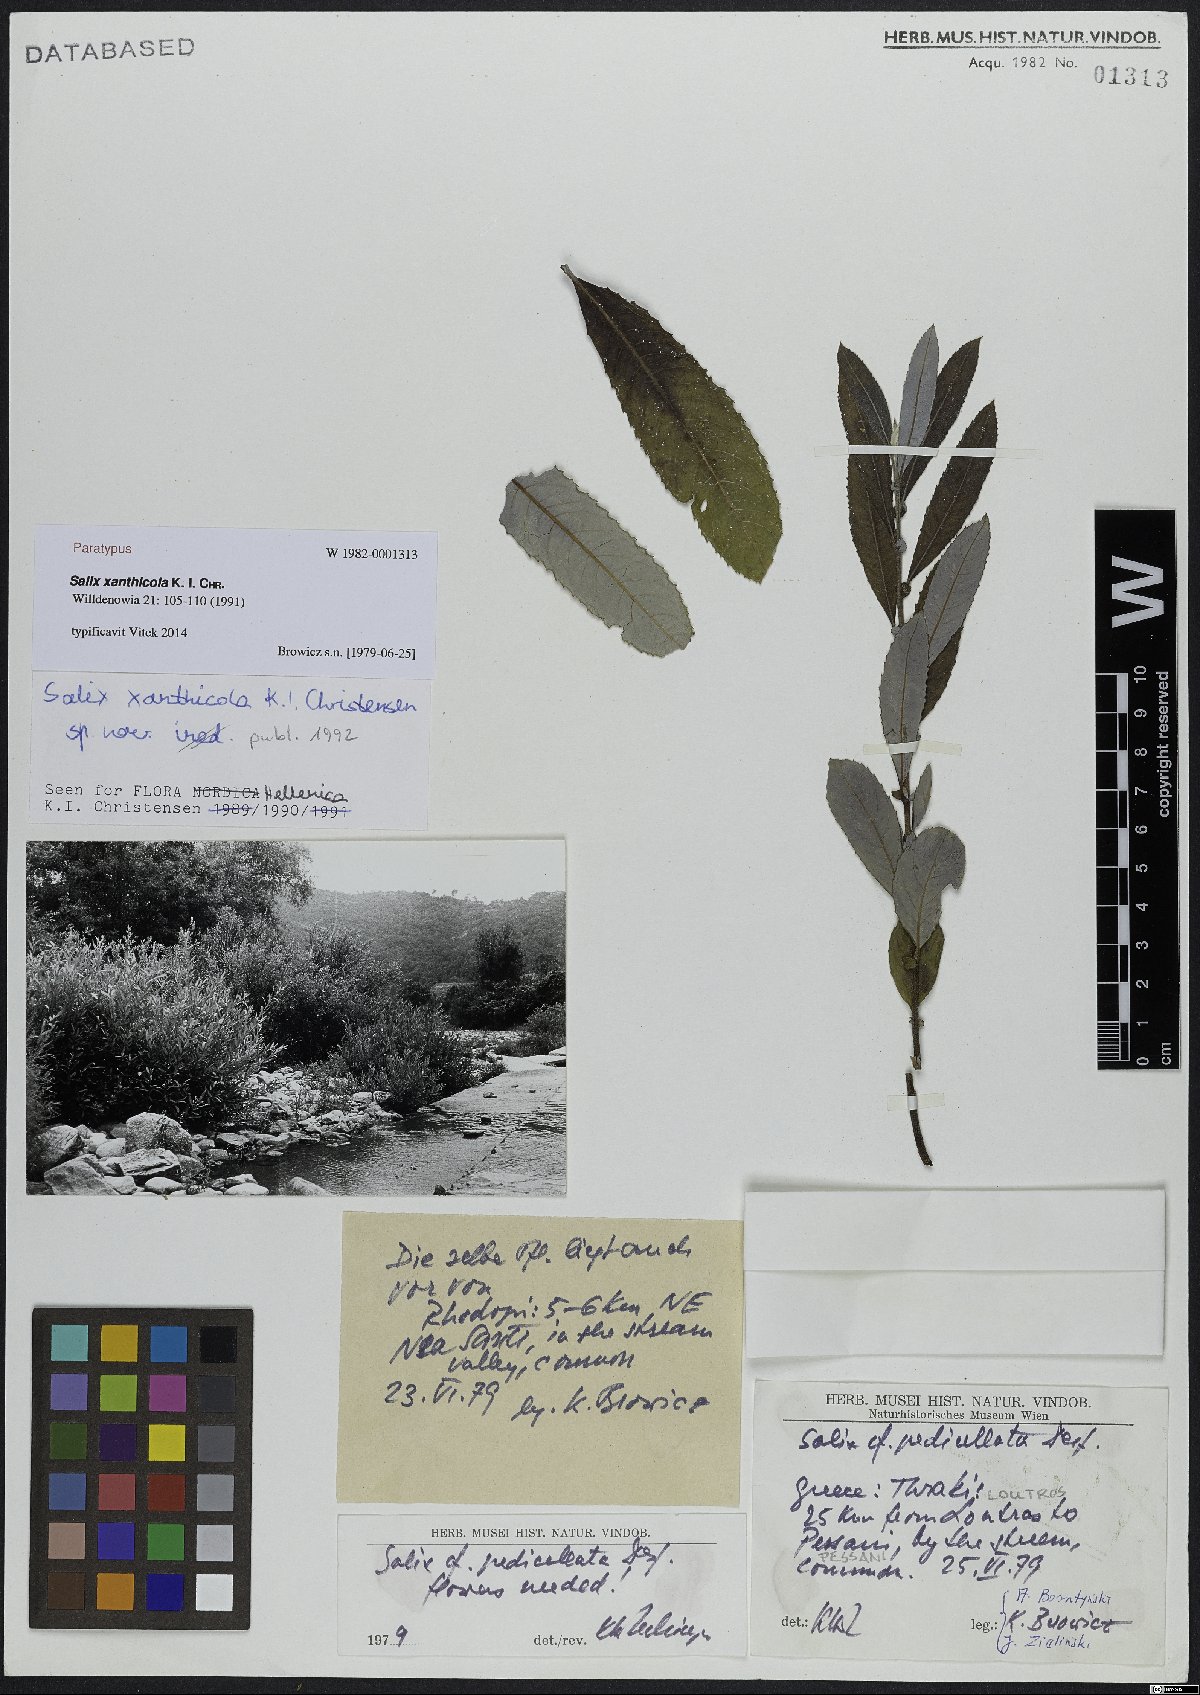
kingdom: Plantae
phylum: Tracheophyta
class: Magnoliopsida
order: Malpighiales
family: Salicaceae
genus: Salix
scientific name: Salix xanthicola
